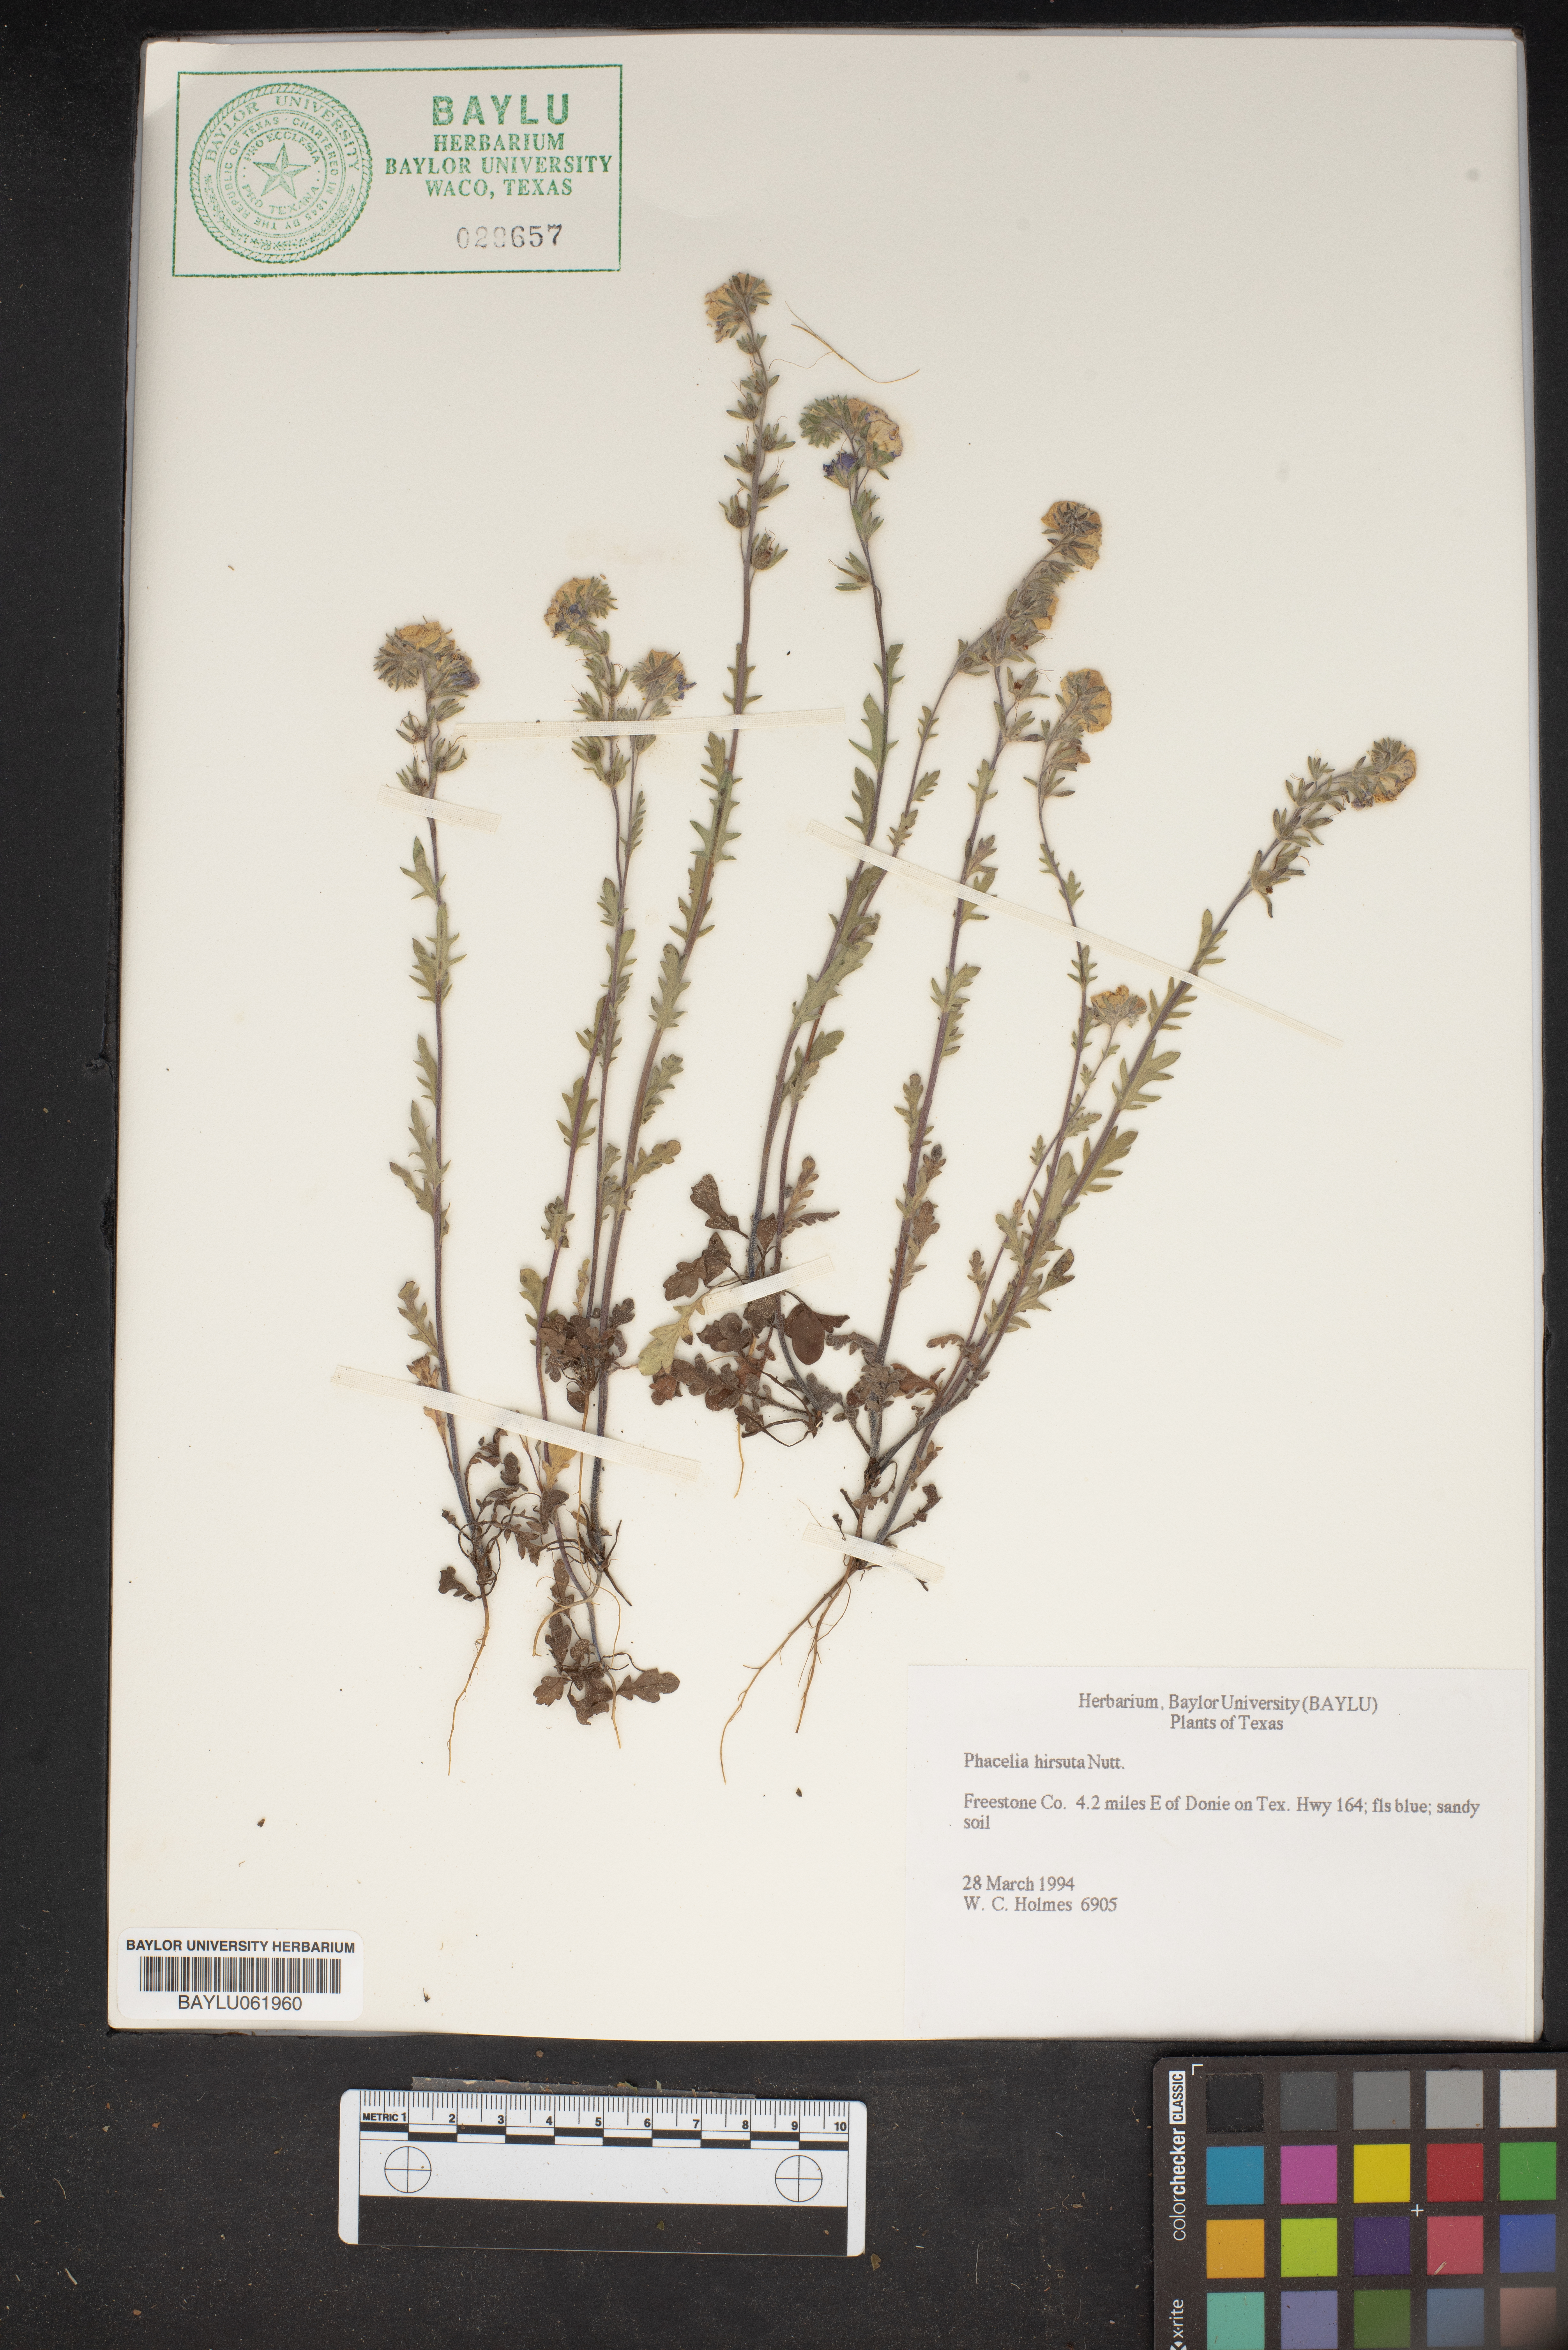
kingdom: Plantae
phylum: Tracheophyta
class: Magnoliopsida
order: Boraginales
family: Hydrophyllaceae
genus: Phacelia
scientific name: Phacelia hirsuta
